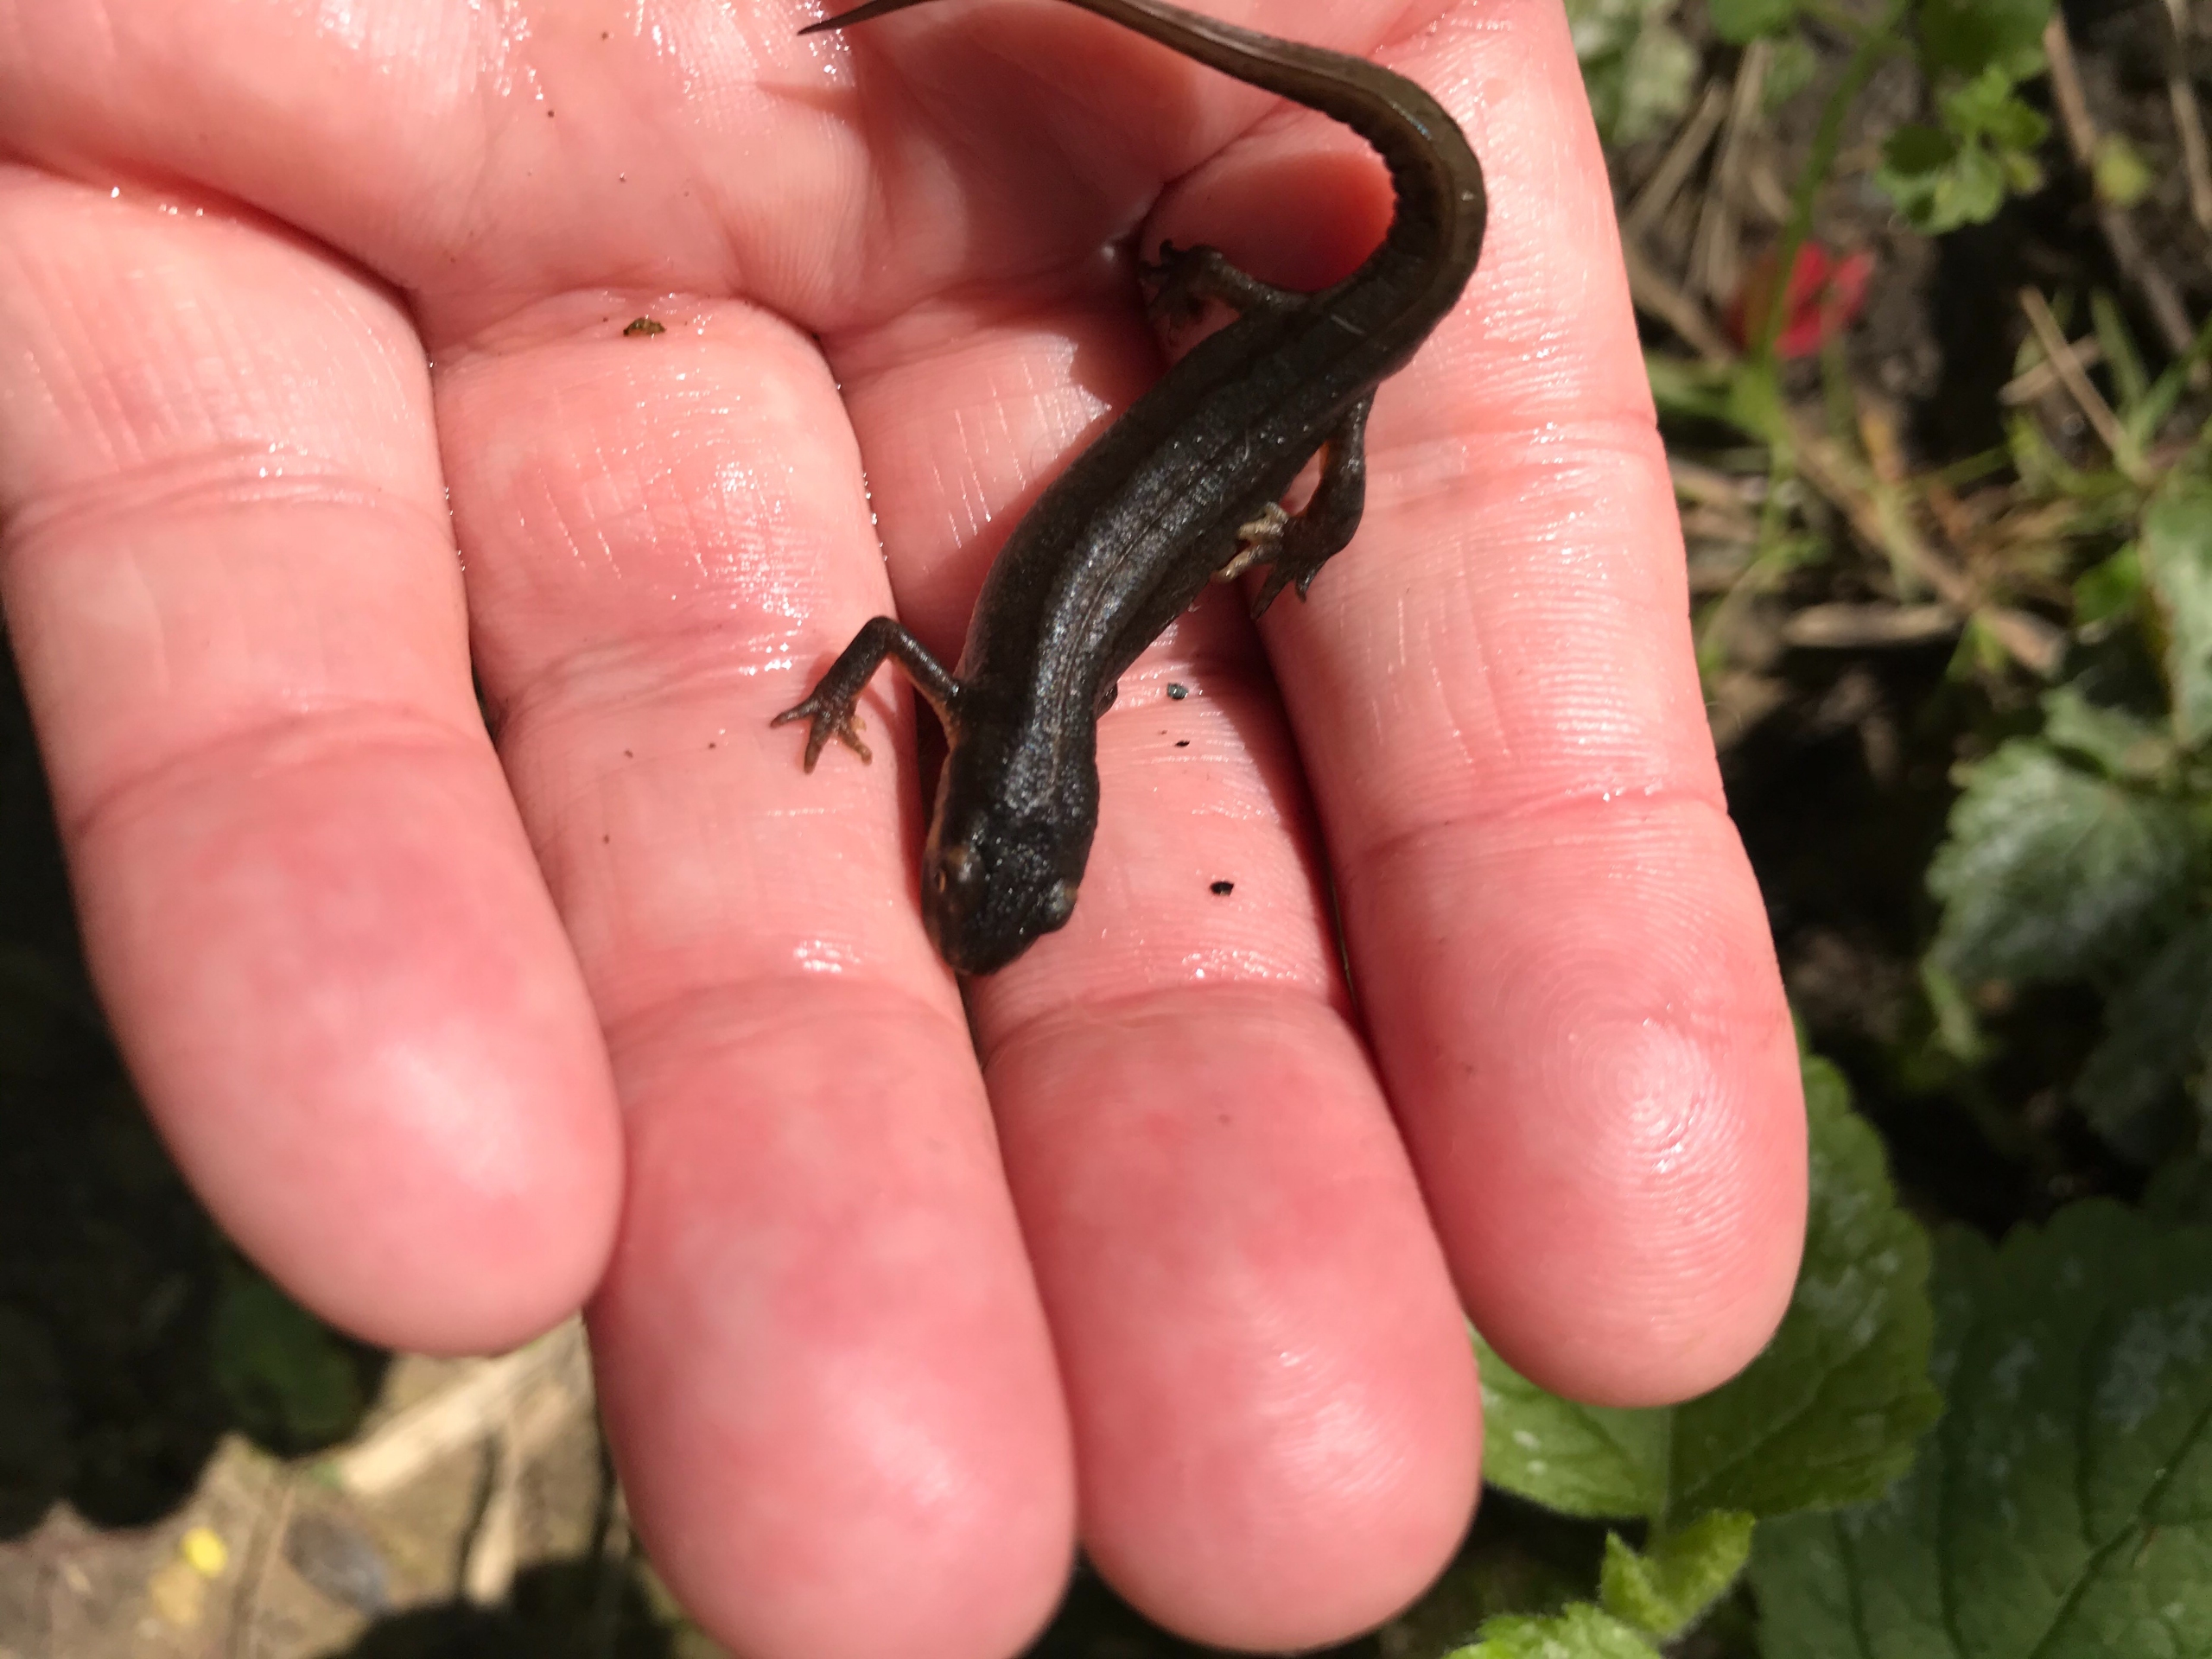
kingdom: Animalia
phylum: Chordata
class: Amphibia
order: Caudata
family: Salamandridae
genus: Lissotriton
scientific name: Lissotriton vulgaris
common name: Lille vandsalamander
